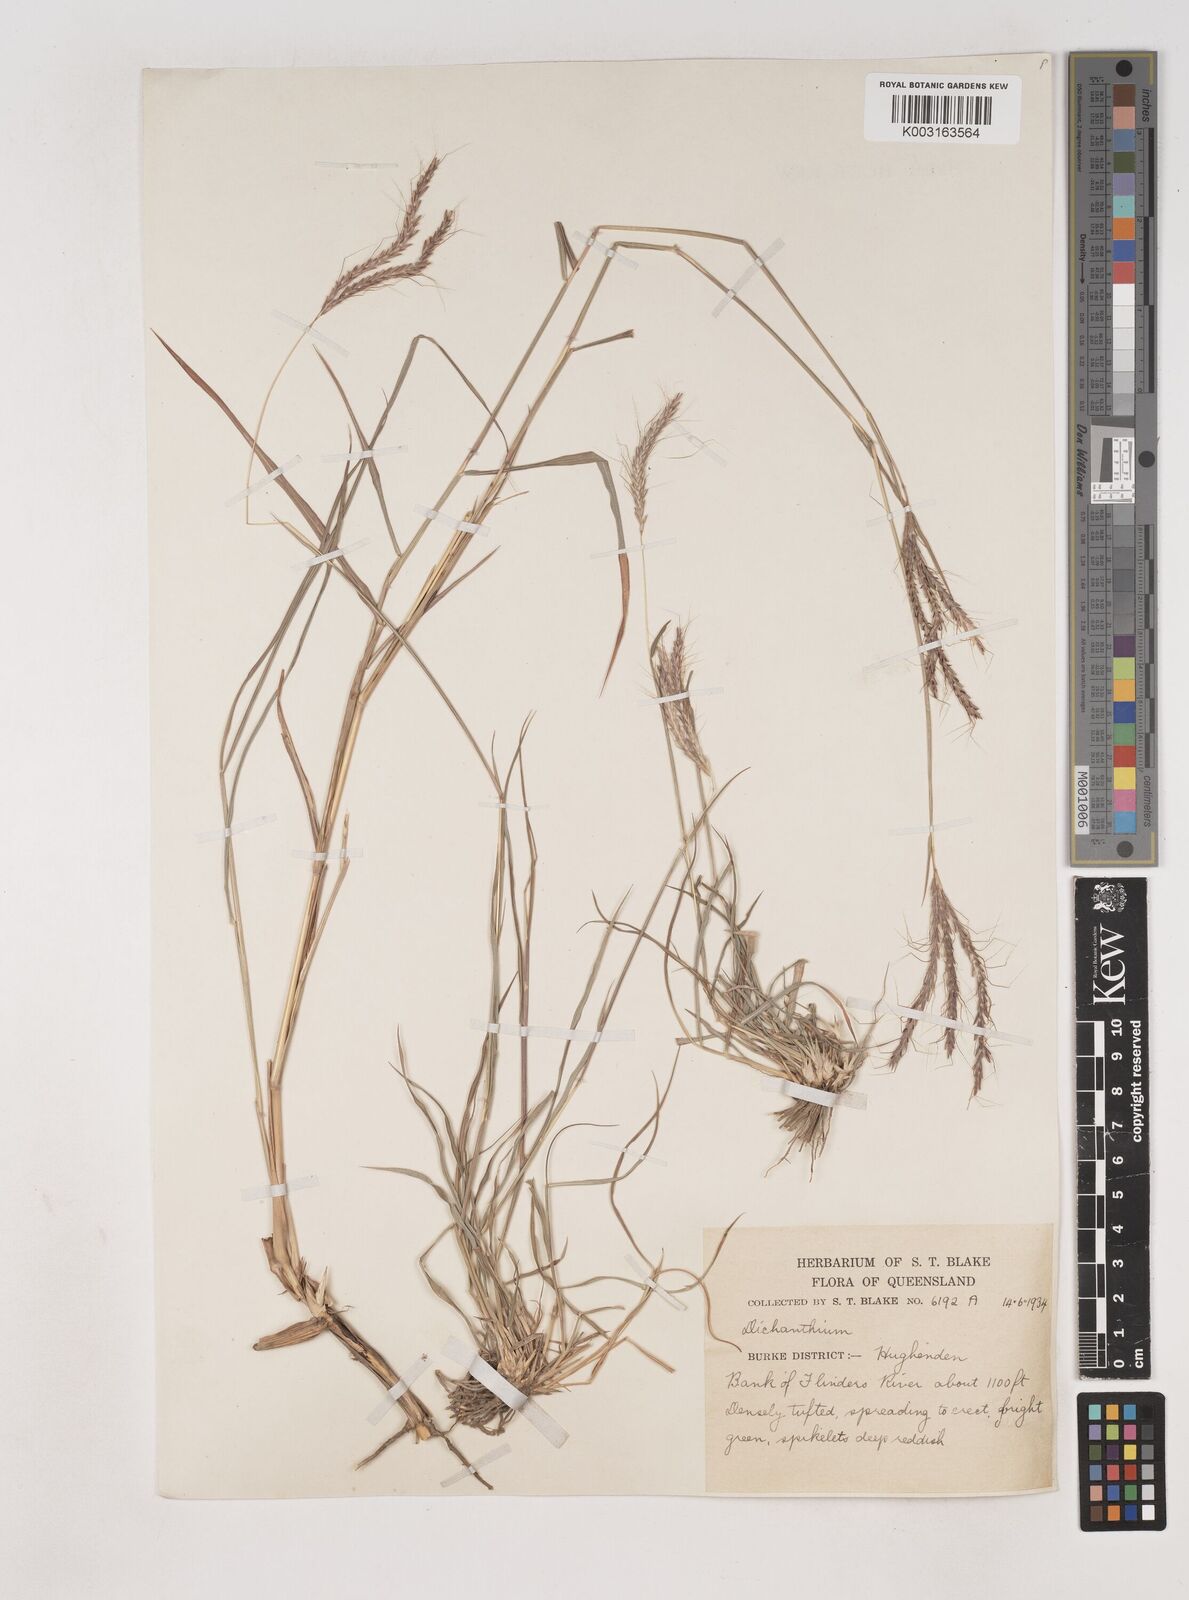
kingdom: Plantae
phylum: Tracheophyta
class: Liliopsida
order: Poales
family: Poaceae
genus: Dichanthium
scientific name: Dichanthium
